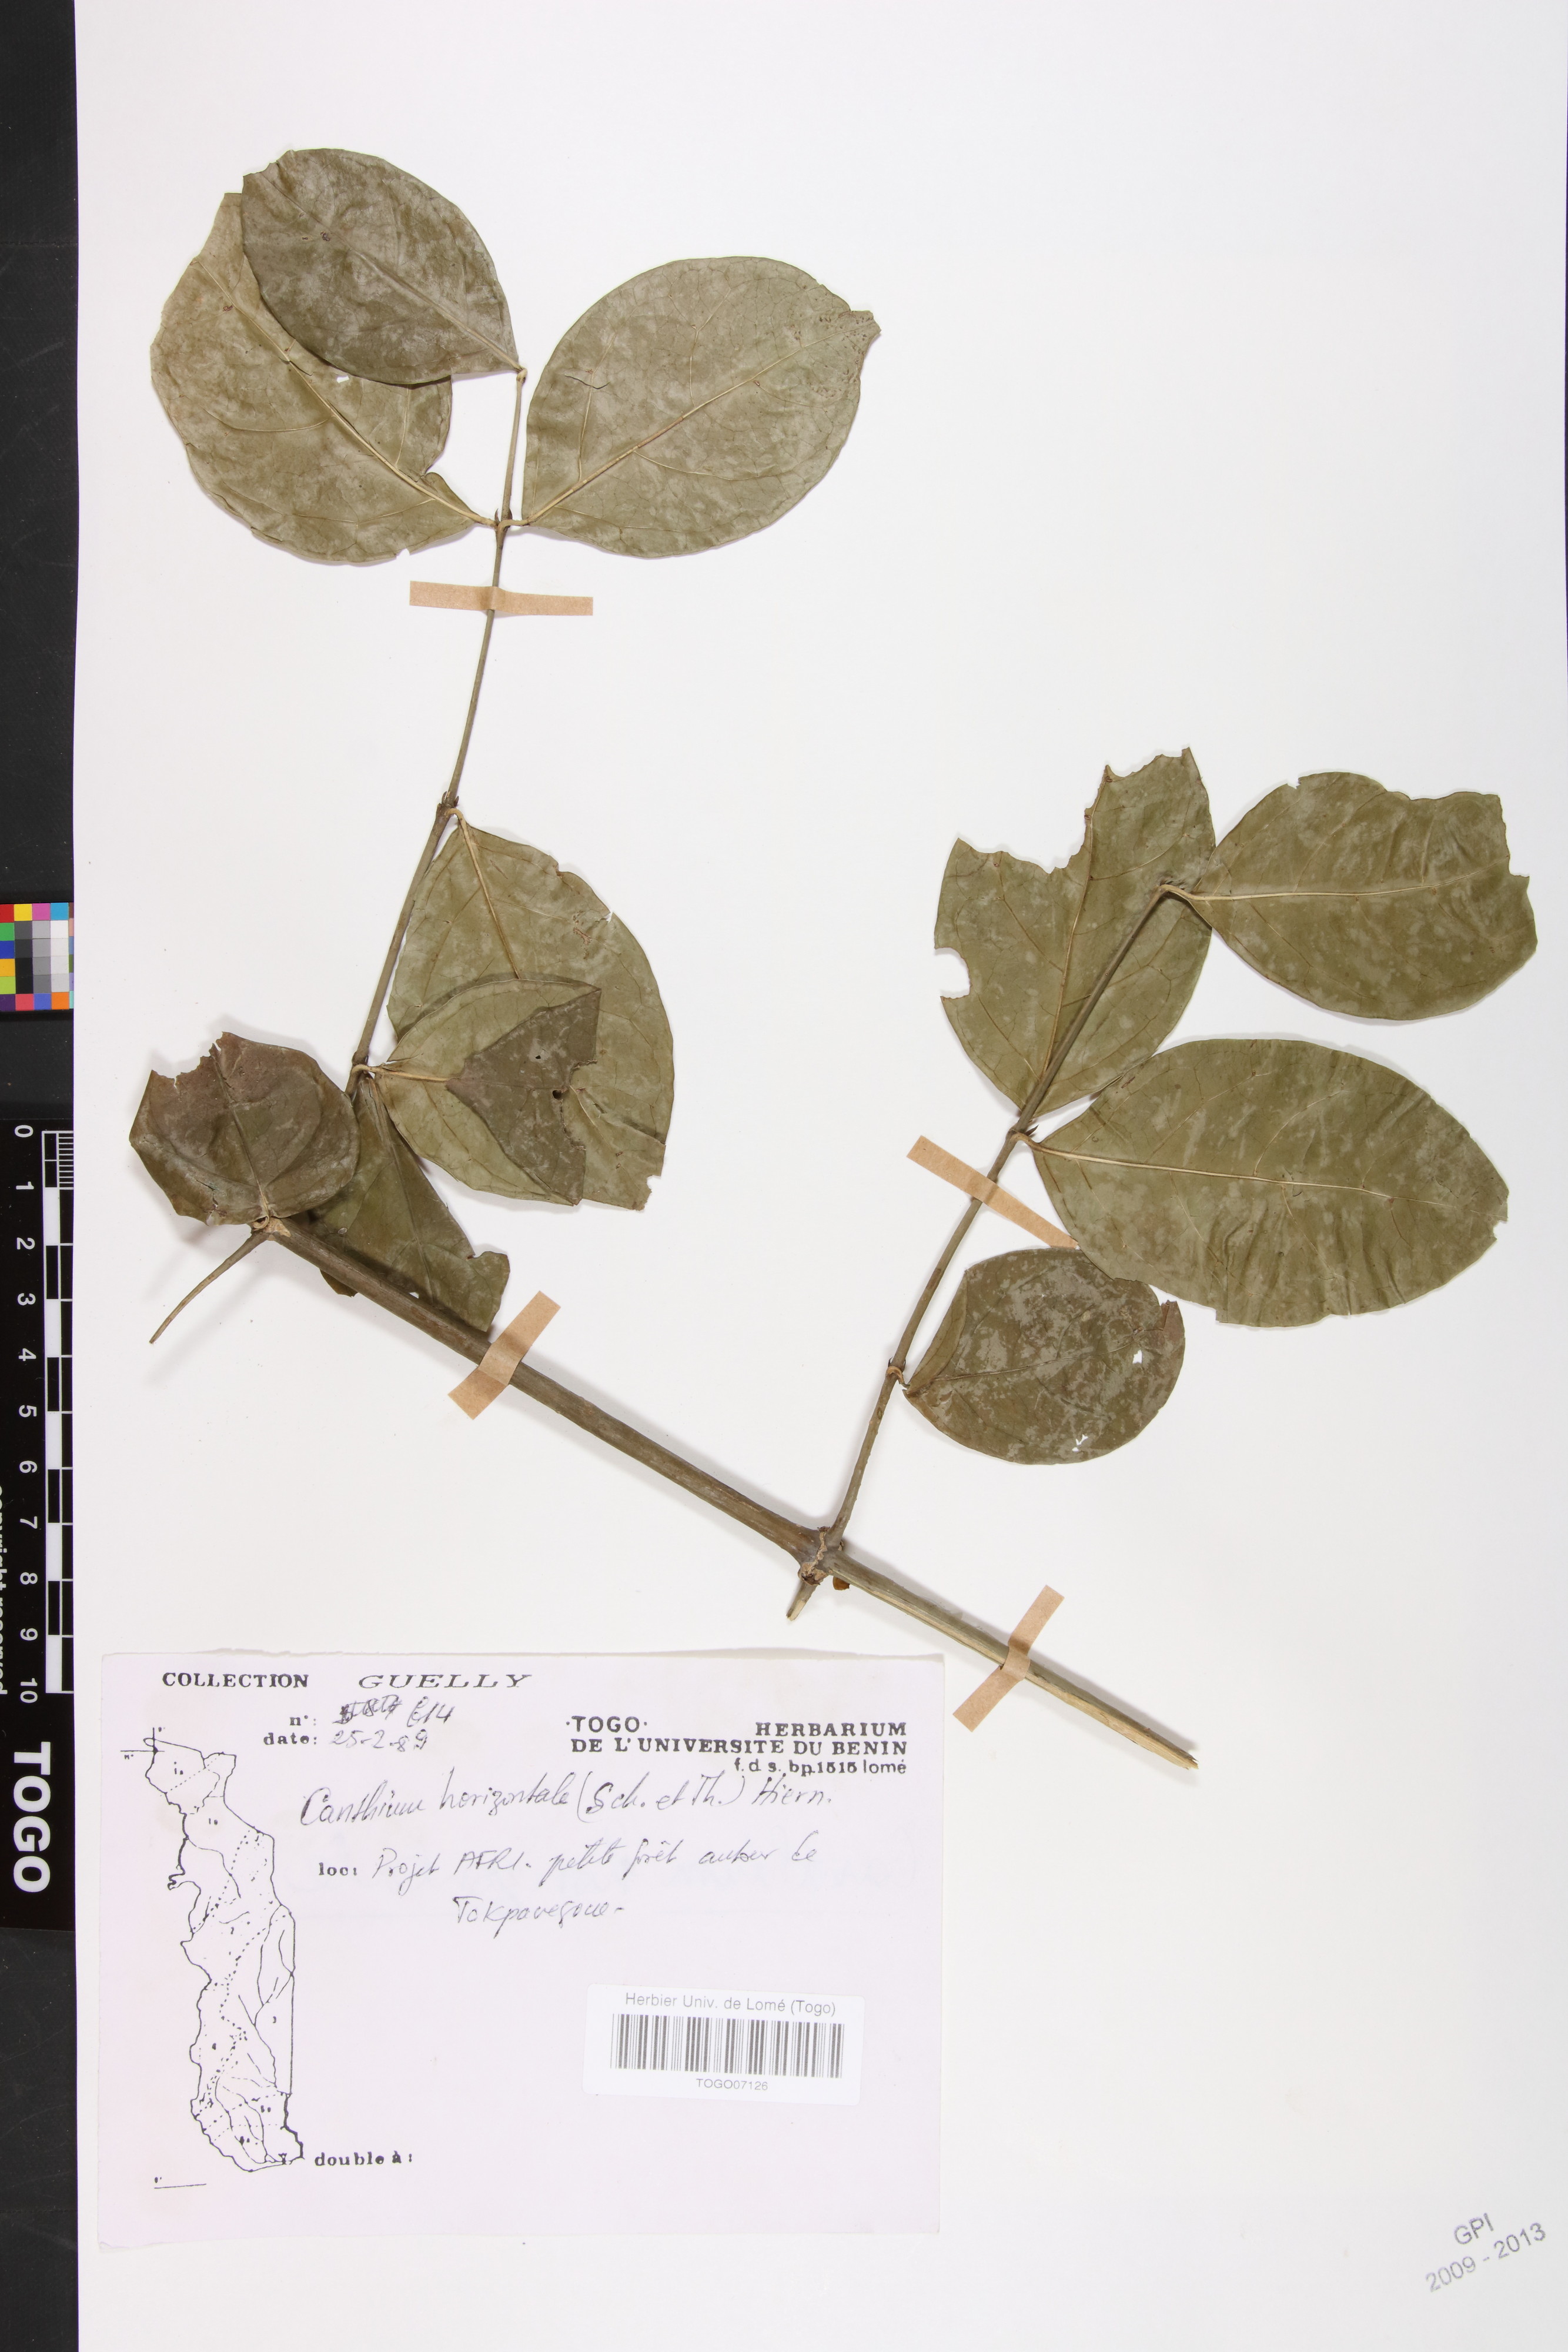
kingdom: Plantae
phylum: Tracheophyta
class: Magnoliopsida
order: Gentianales
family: Rubiaceae
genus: Psydrax
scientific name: Psydrax horizontalis
